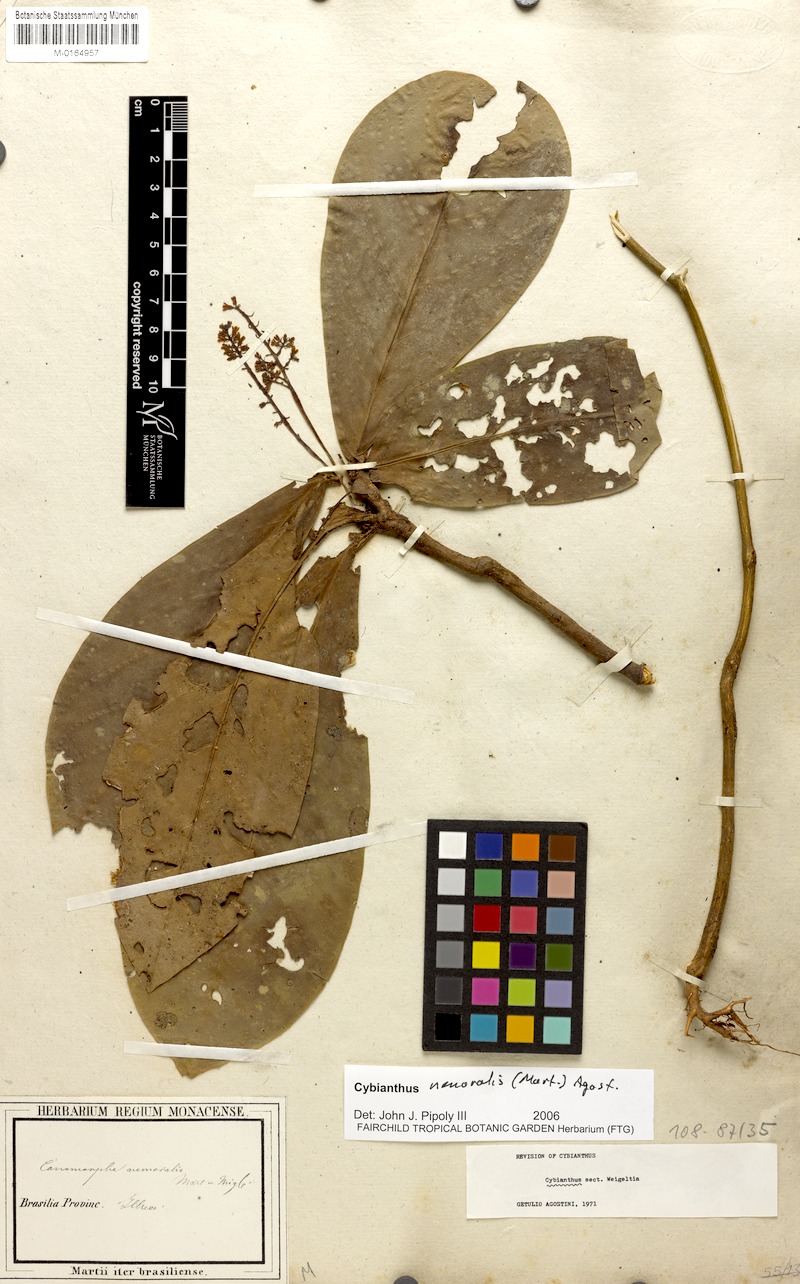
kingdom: Plantae
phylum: Tracheophyta
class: Magnoliopsida
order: Ericales
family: Primulaceae
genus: Cybianthus
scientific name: Cybianthus nemoralis
